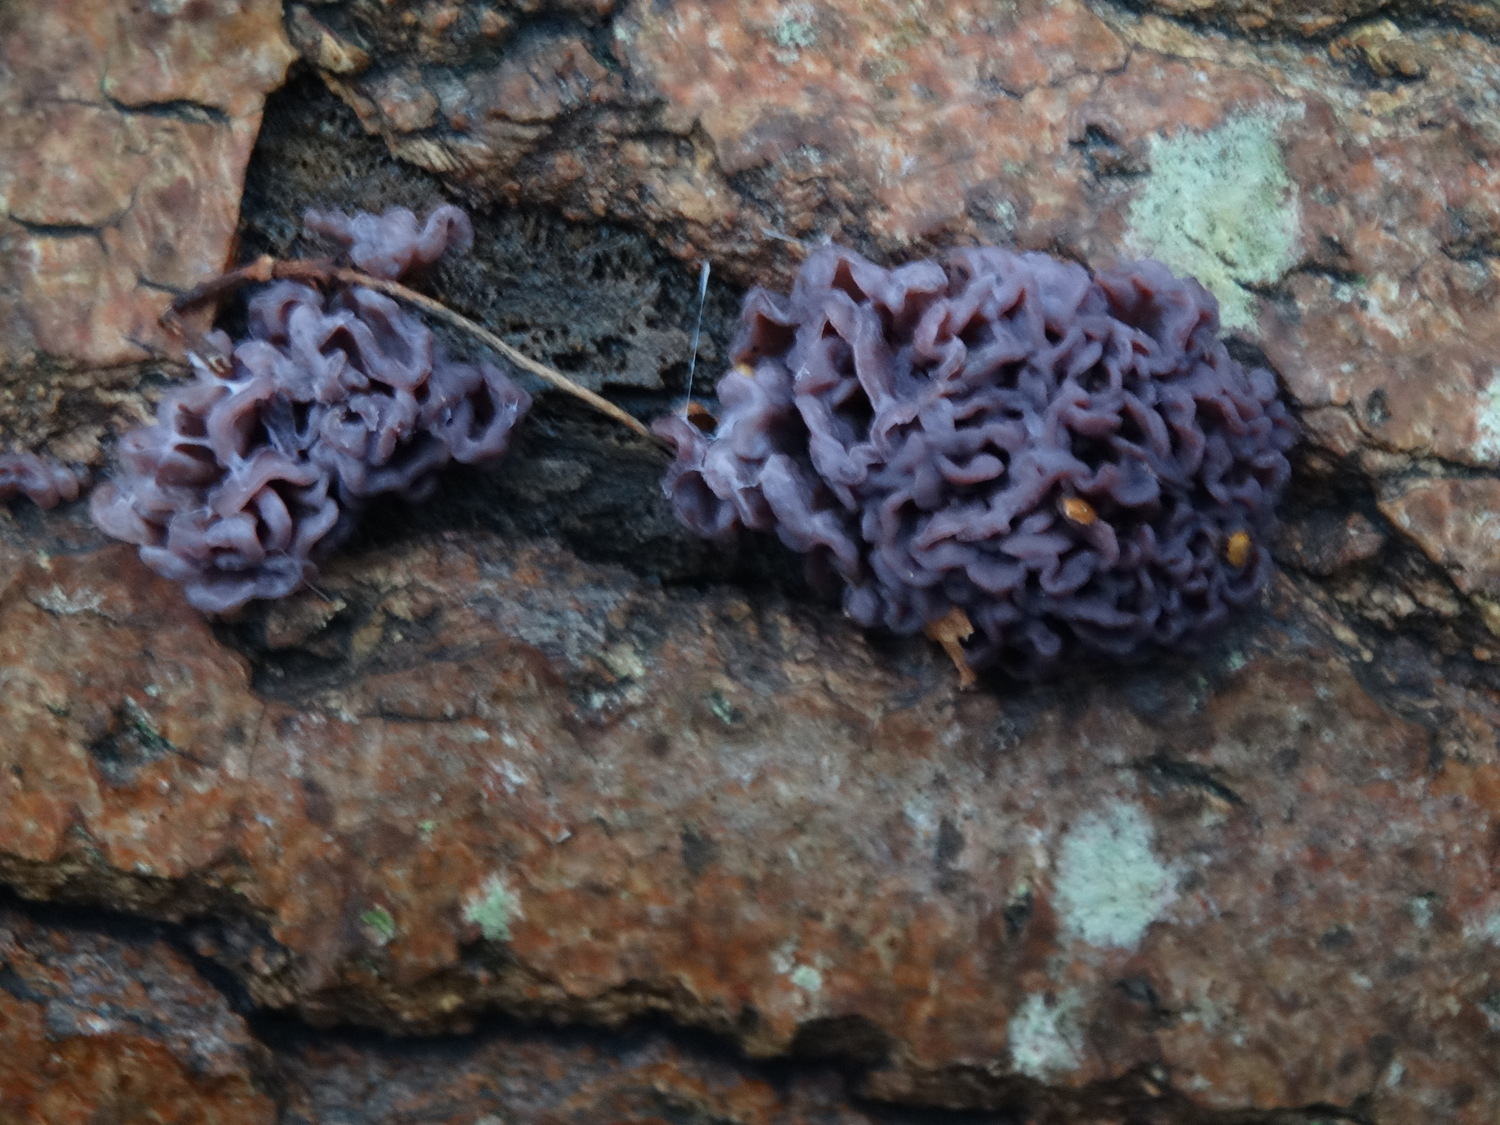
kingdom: Fungi
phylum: Ascomycota
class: Leotiomycetes
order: Helotiales
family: Gelatinodiscaceae
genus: Ascocoryne
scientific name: Ascocoryne sarcoides
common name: rødlilla sejskive
